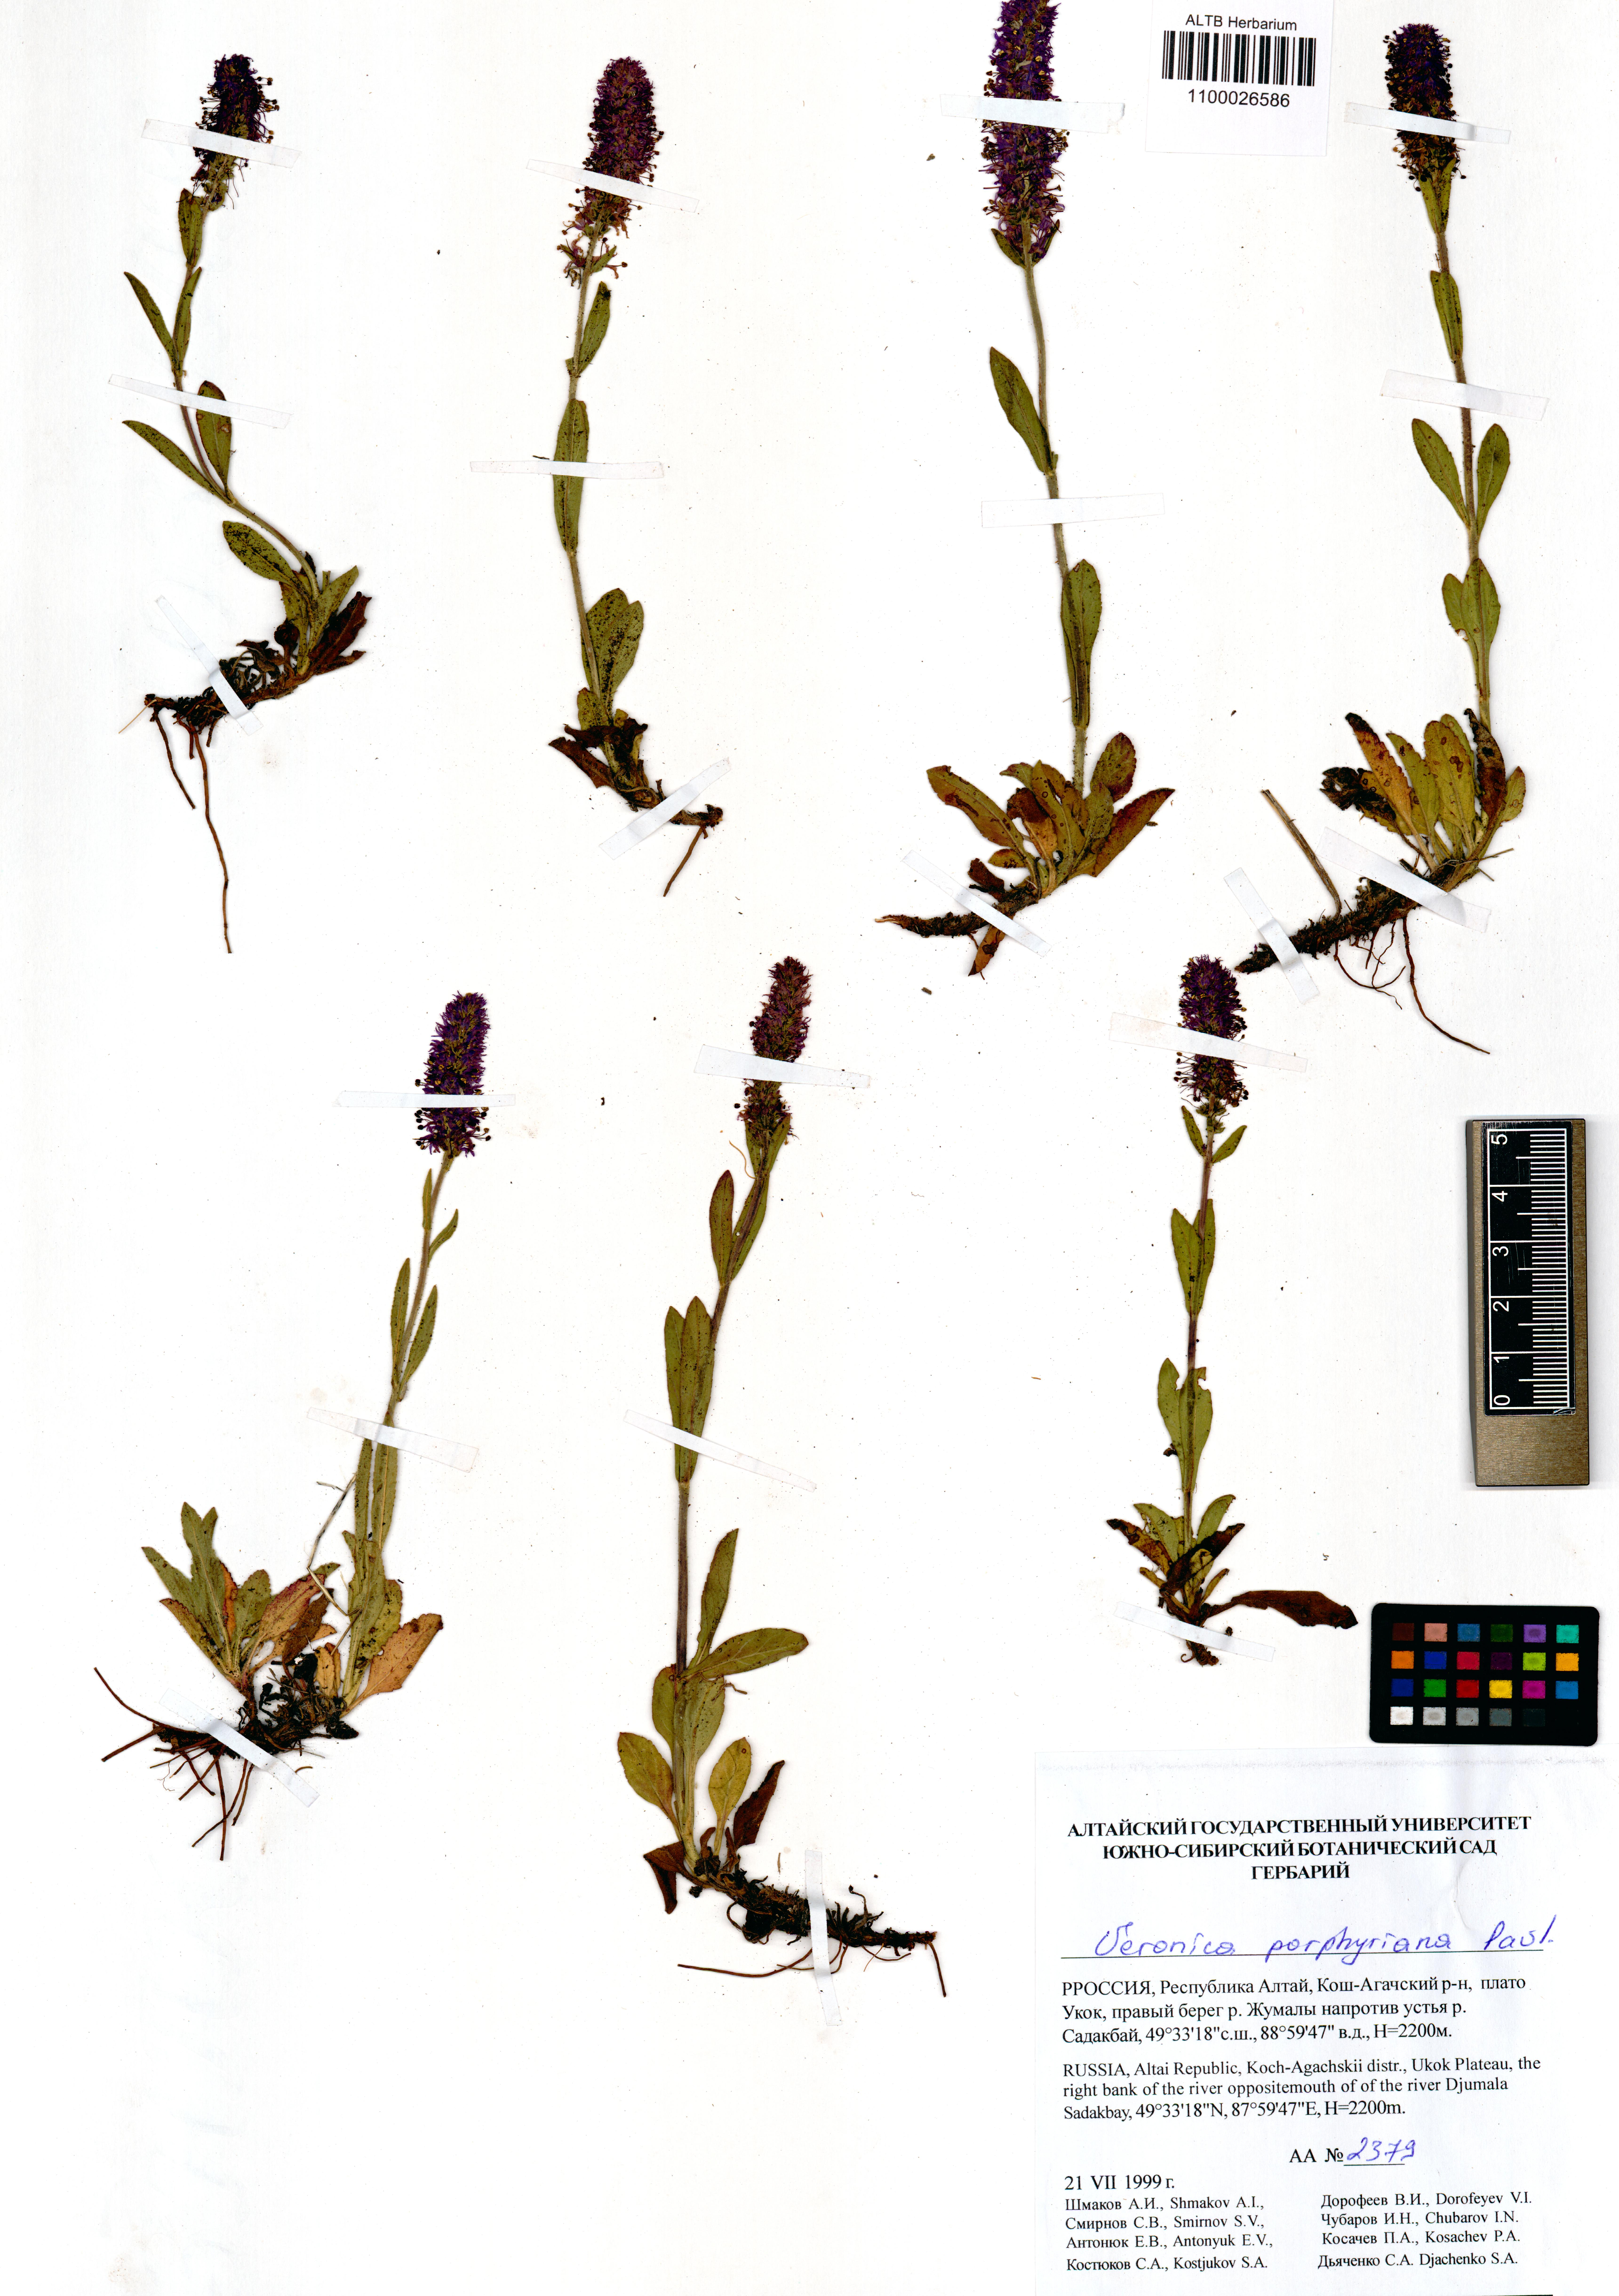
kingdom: Plantae
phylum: Tracheophyta
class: Magnoliopsida
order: Lamiales
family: Plantaginaceae
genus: Veronica
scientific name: Veronica porphyriana
